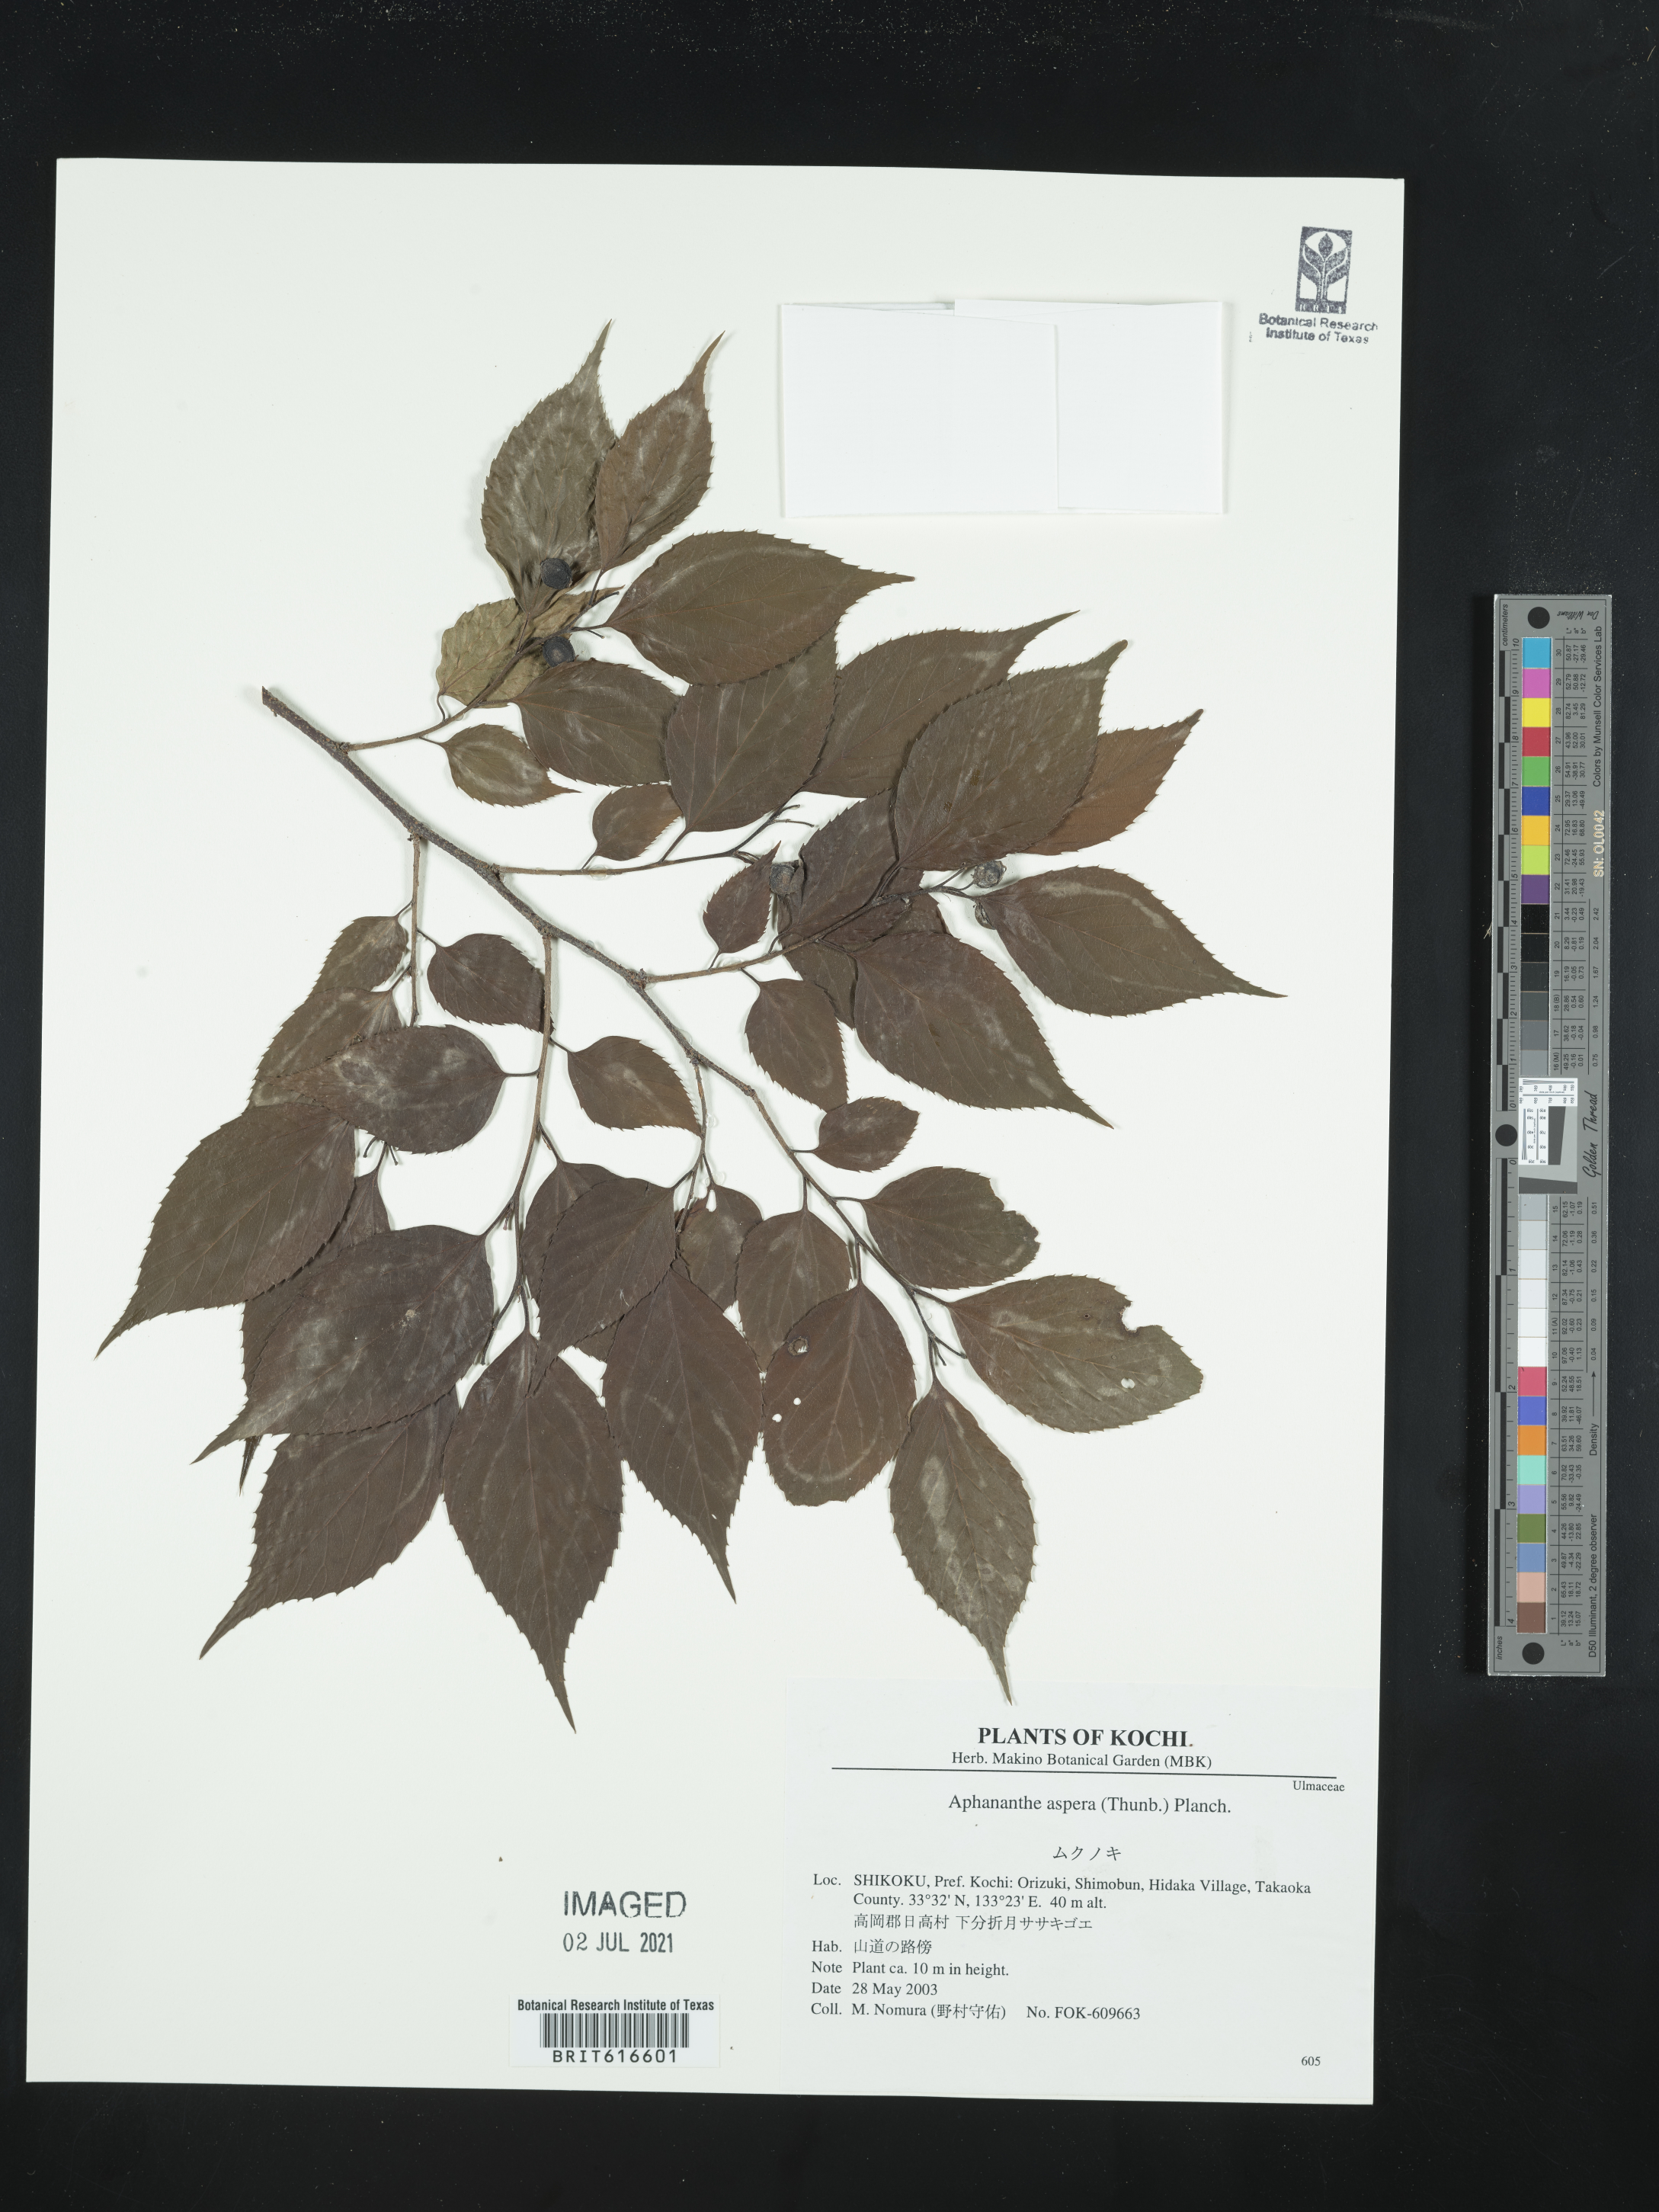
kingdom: Plantae
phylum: Tracheophyta
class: Magnoliopsida
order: Rosales
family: Cannabaceae
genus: Aphananthe
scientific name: Aphananthe aspera
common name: Mukutree
